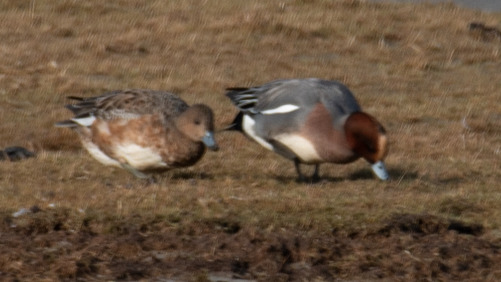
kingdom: Animalia
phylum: Chordata
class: Aves
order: Anseriformes
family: Anatidae
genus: Mareca
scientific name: Mareca penelope
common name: Pibeand
